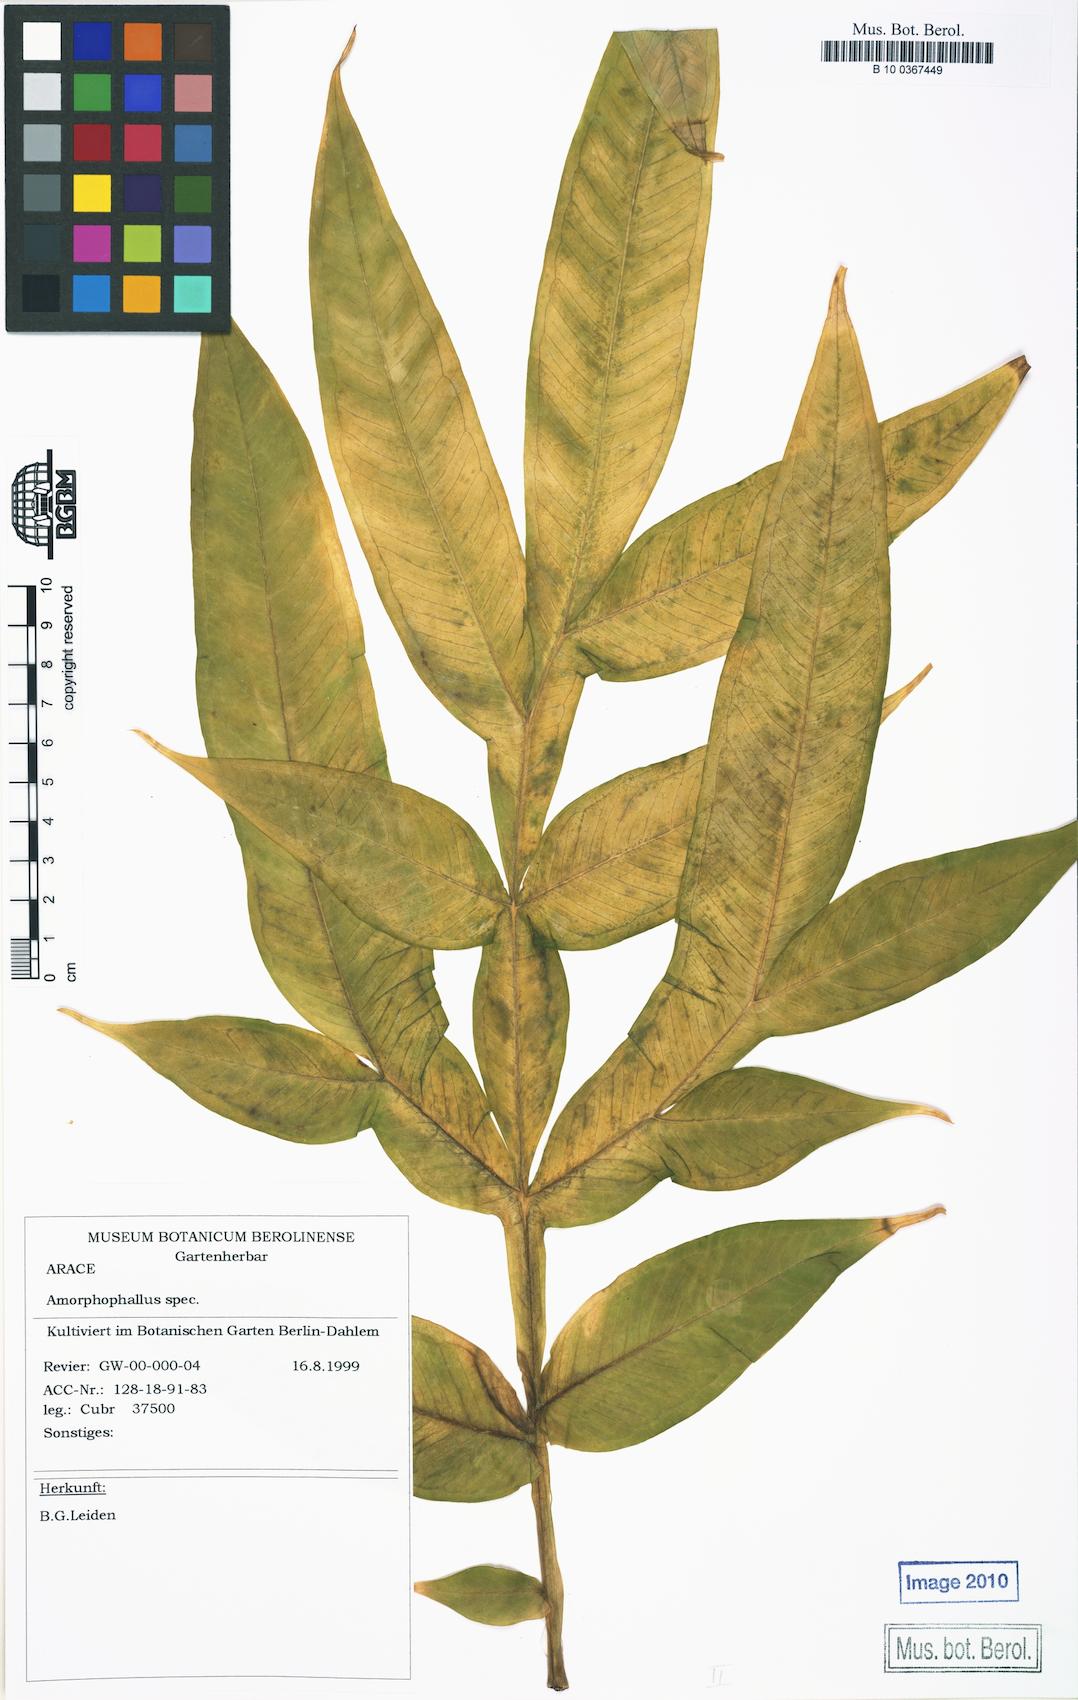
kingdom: Plantae
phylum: Tracheophyta
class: Liliopsida
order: Alismatales
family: Araceae
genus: Amorphophallus
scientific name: Amorphophallus krausei
